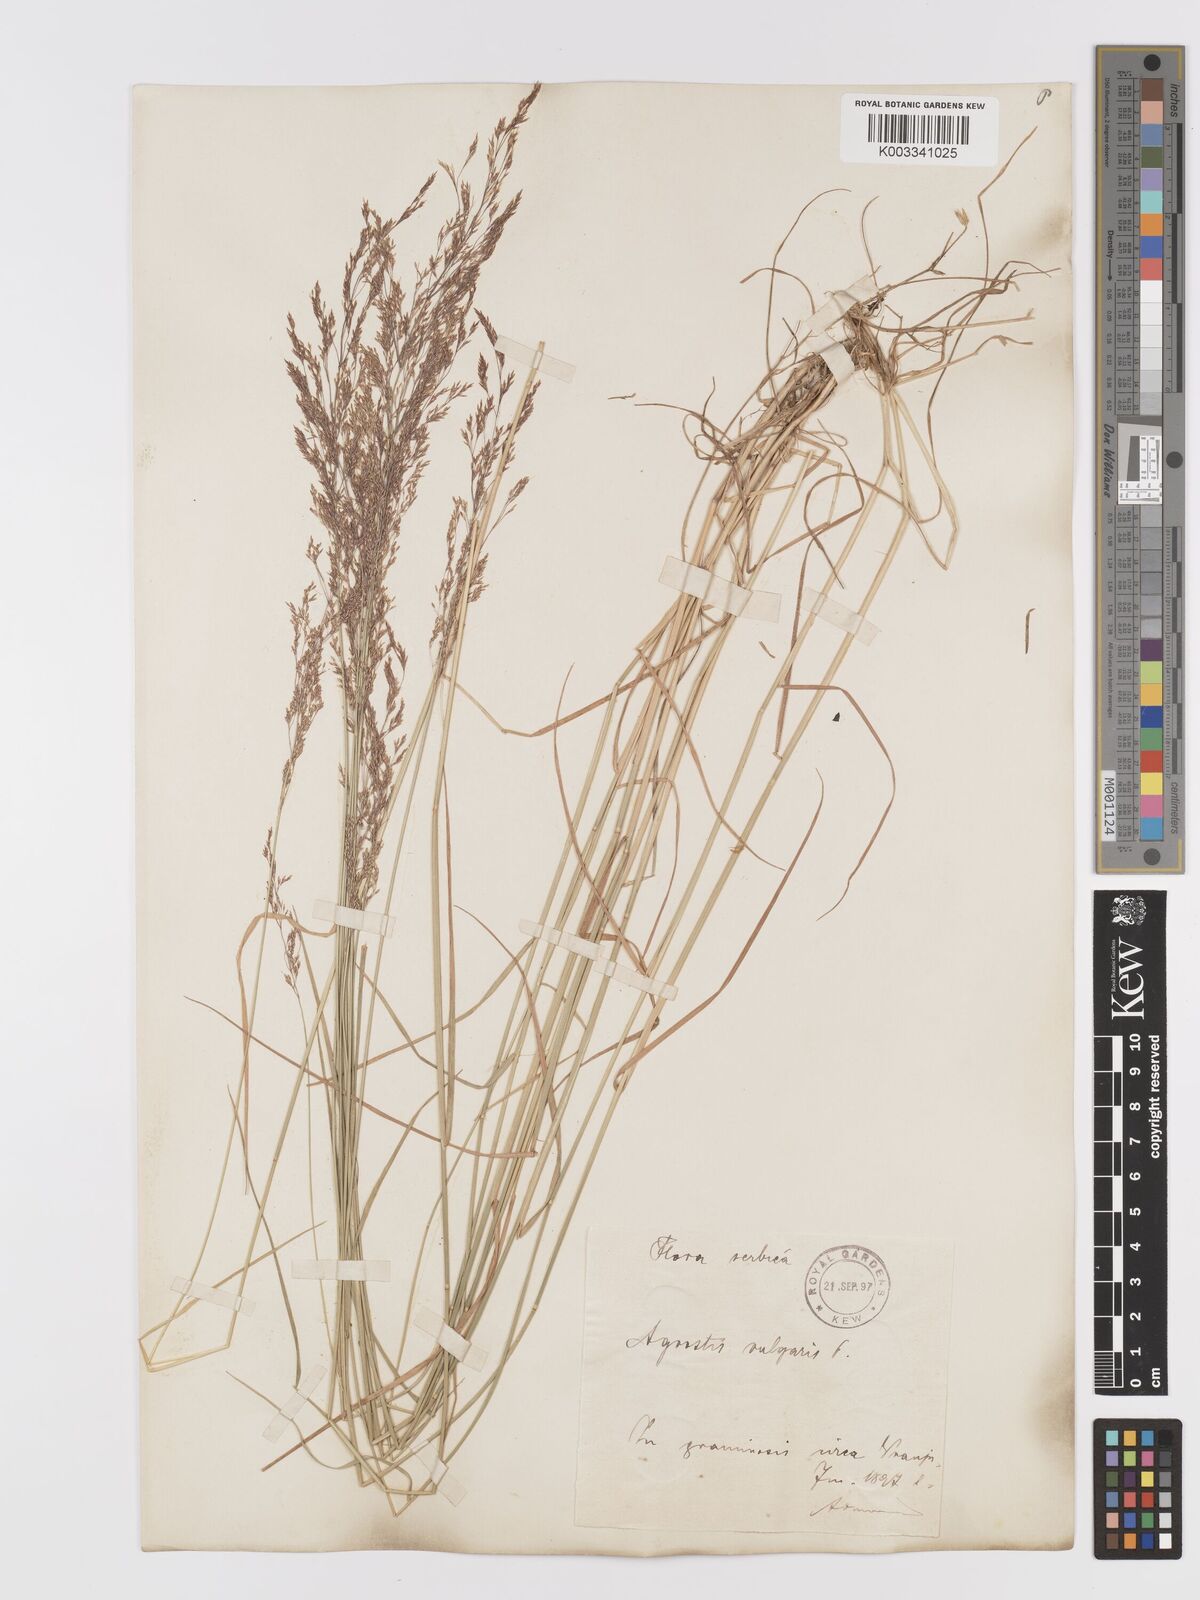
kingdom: Plantae
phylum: Tracheophyta
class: Liliopsida
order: Poales
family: Poaceae
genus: Agrostis
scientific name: Agrostis capillaris
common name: Colonial bentgrass
